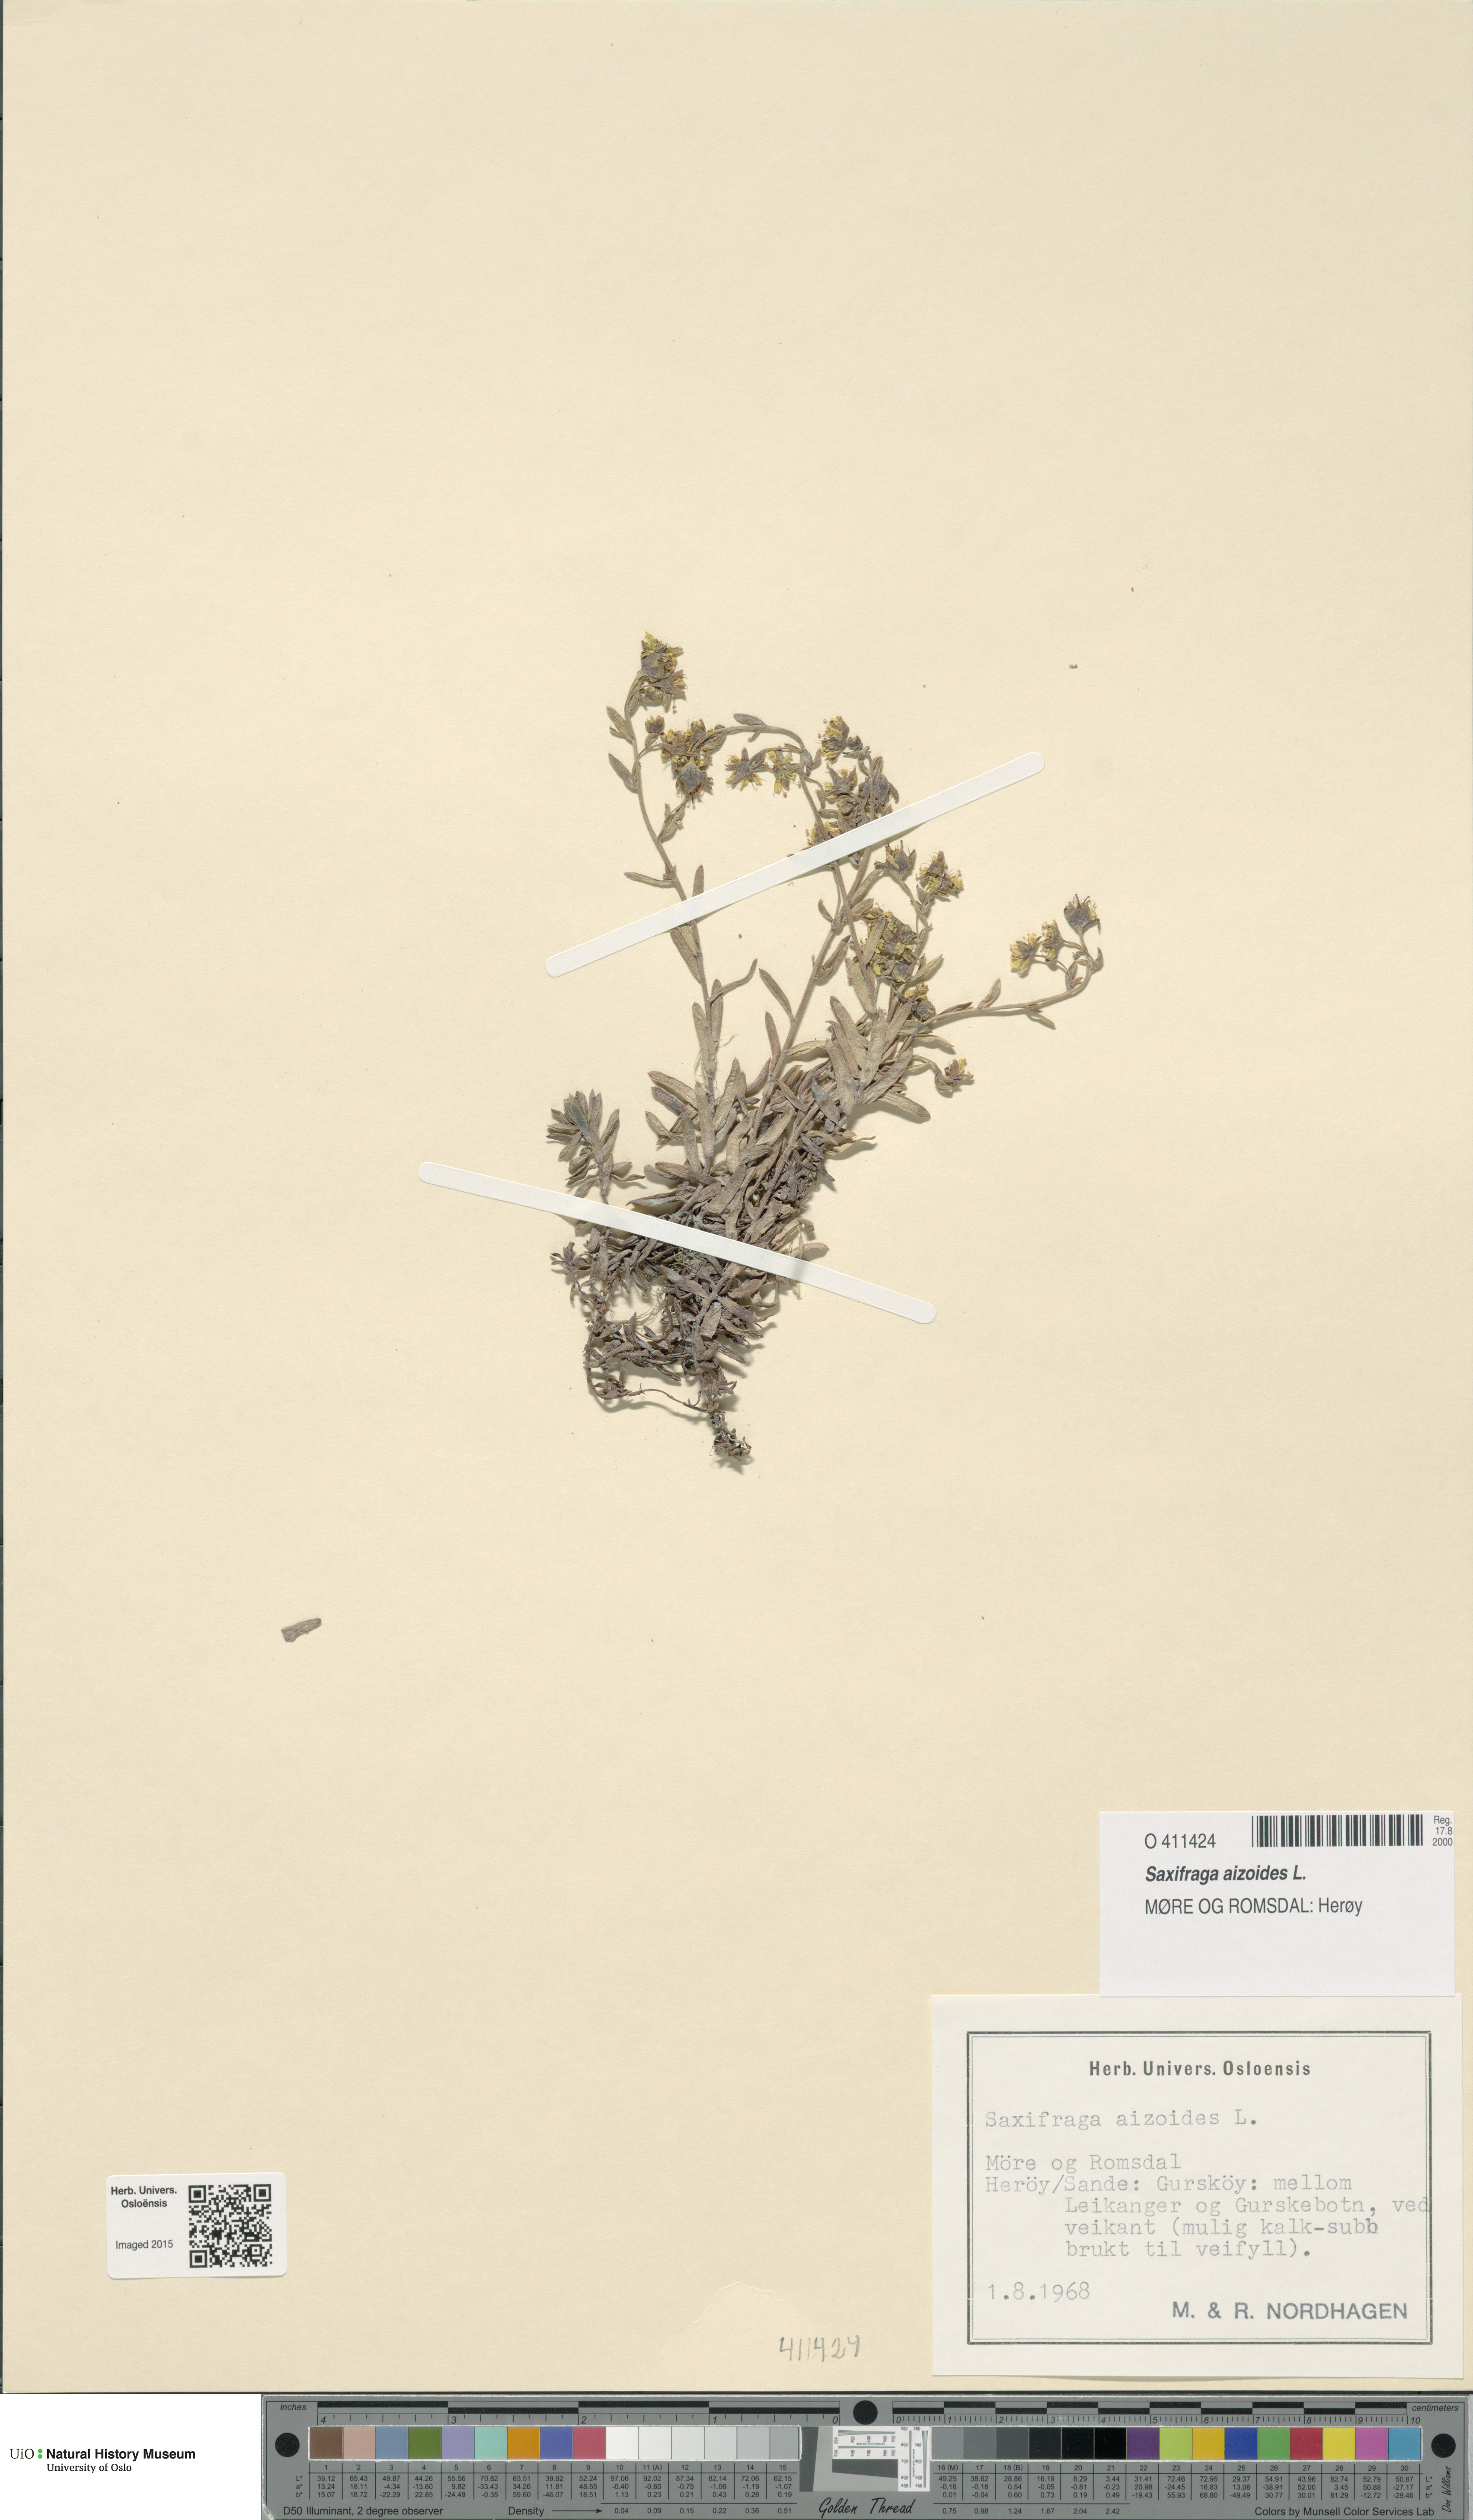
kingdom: Plantae
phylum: Tracheophyta
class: Magnoliopsida
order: Saxifragales
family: Saxifragaceae
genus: Saxifraga
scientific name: Saxifraga aizoides
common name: Yellow mountain saxifrage
